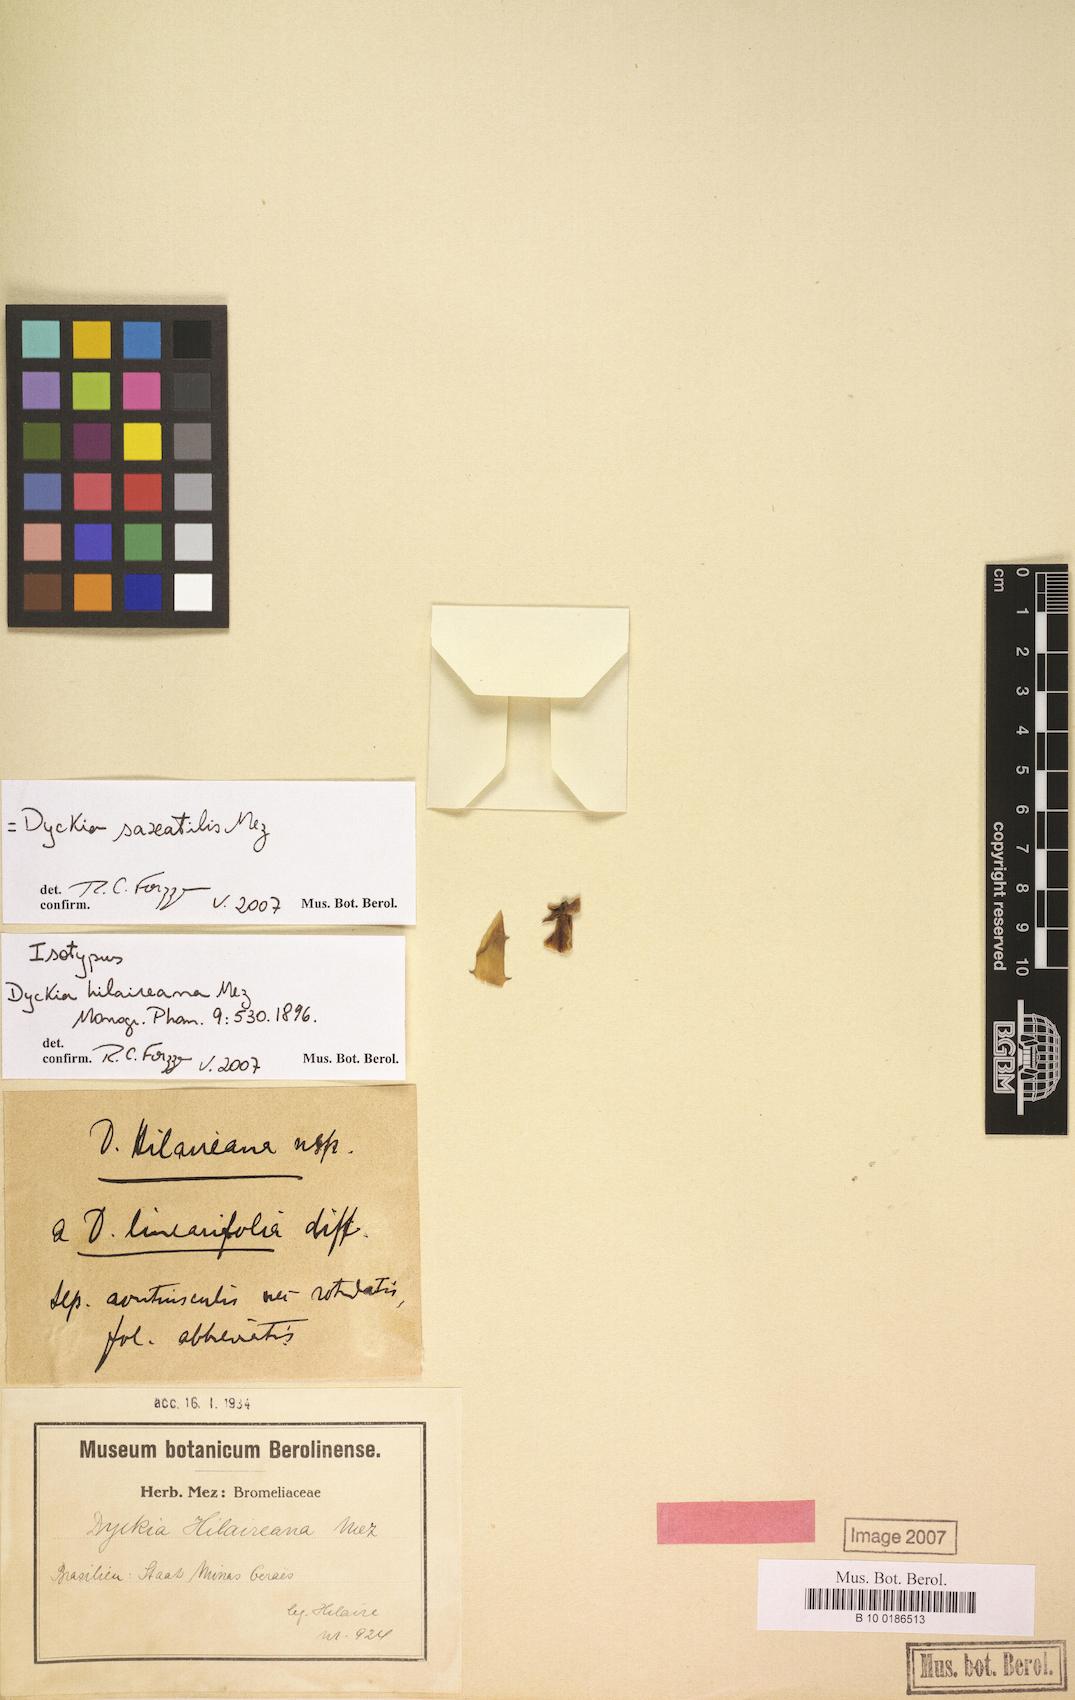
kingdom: Plantae
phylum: Tracheophyta
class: Liliopsida
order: Poales
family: Bromeliaceae
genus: Dyckia
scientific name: Dyckia saxatilis
